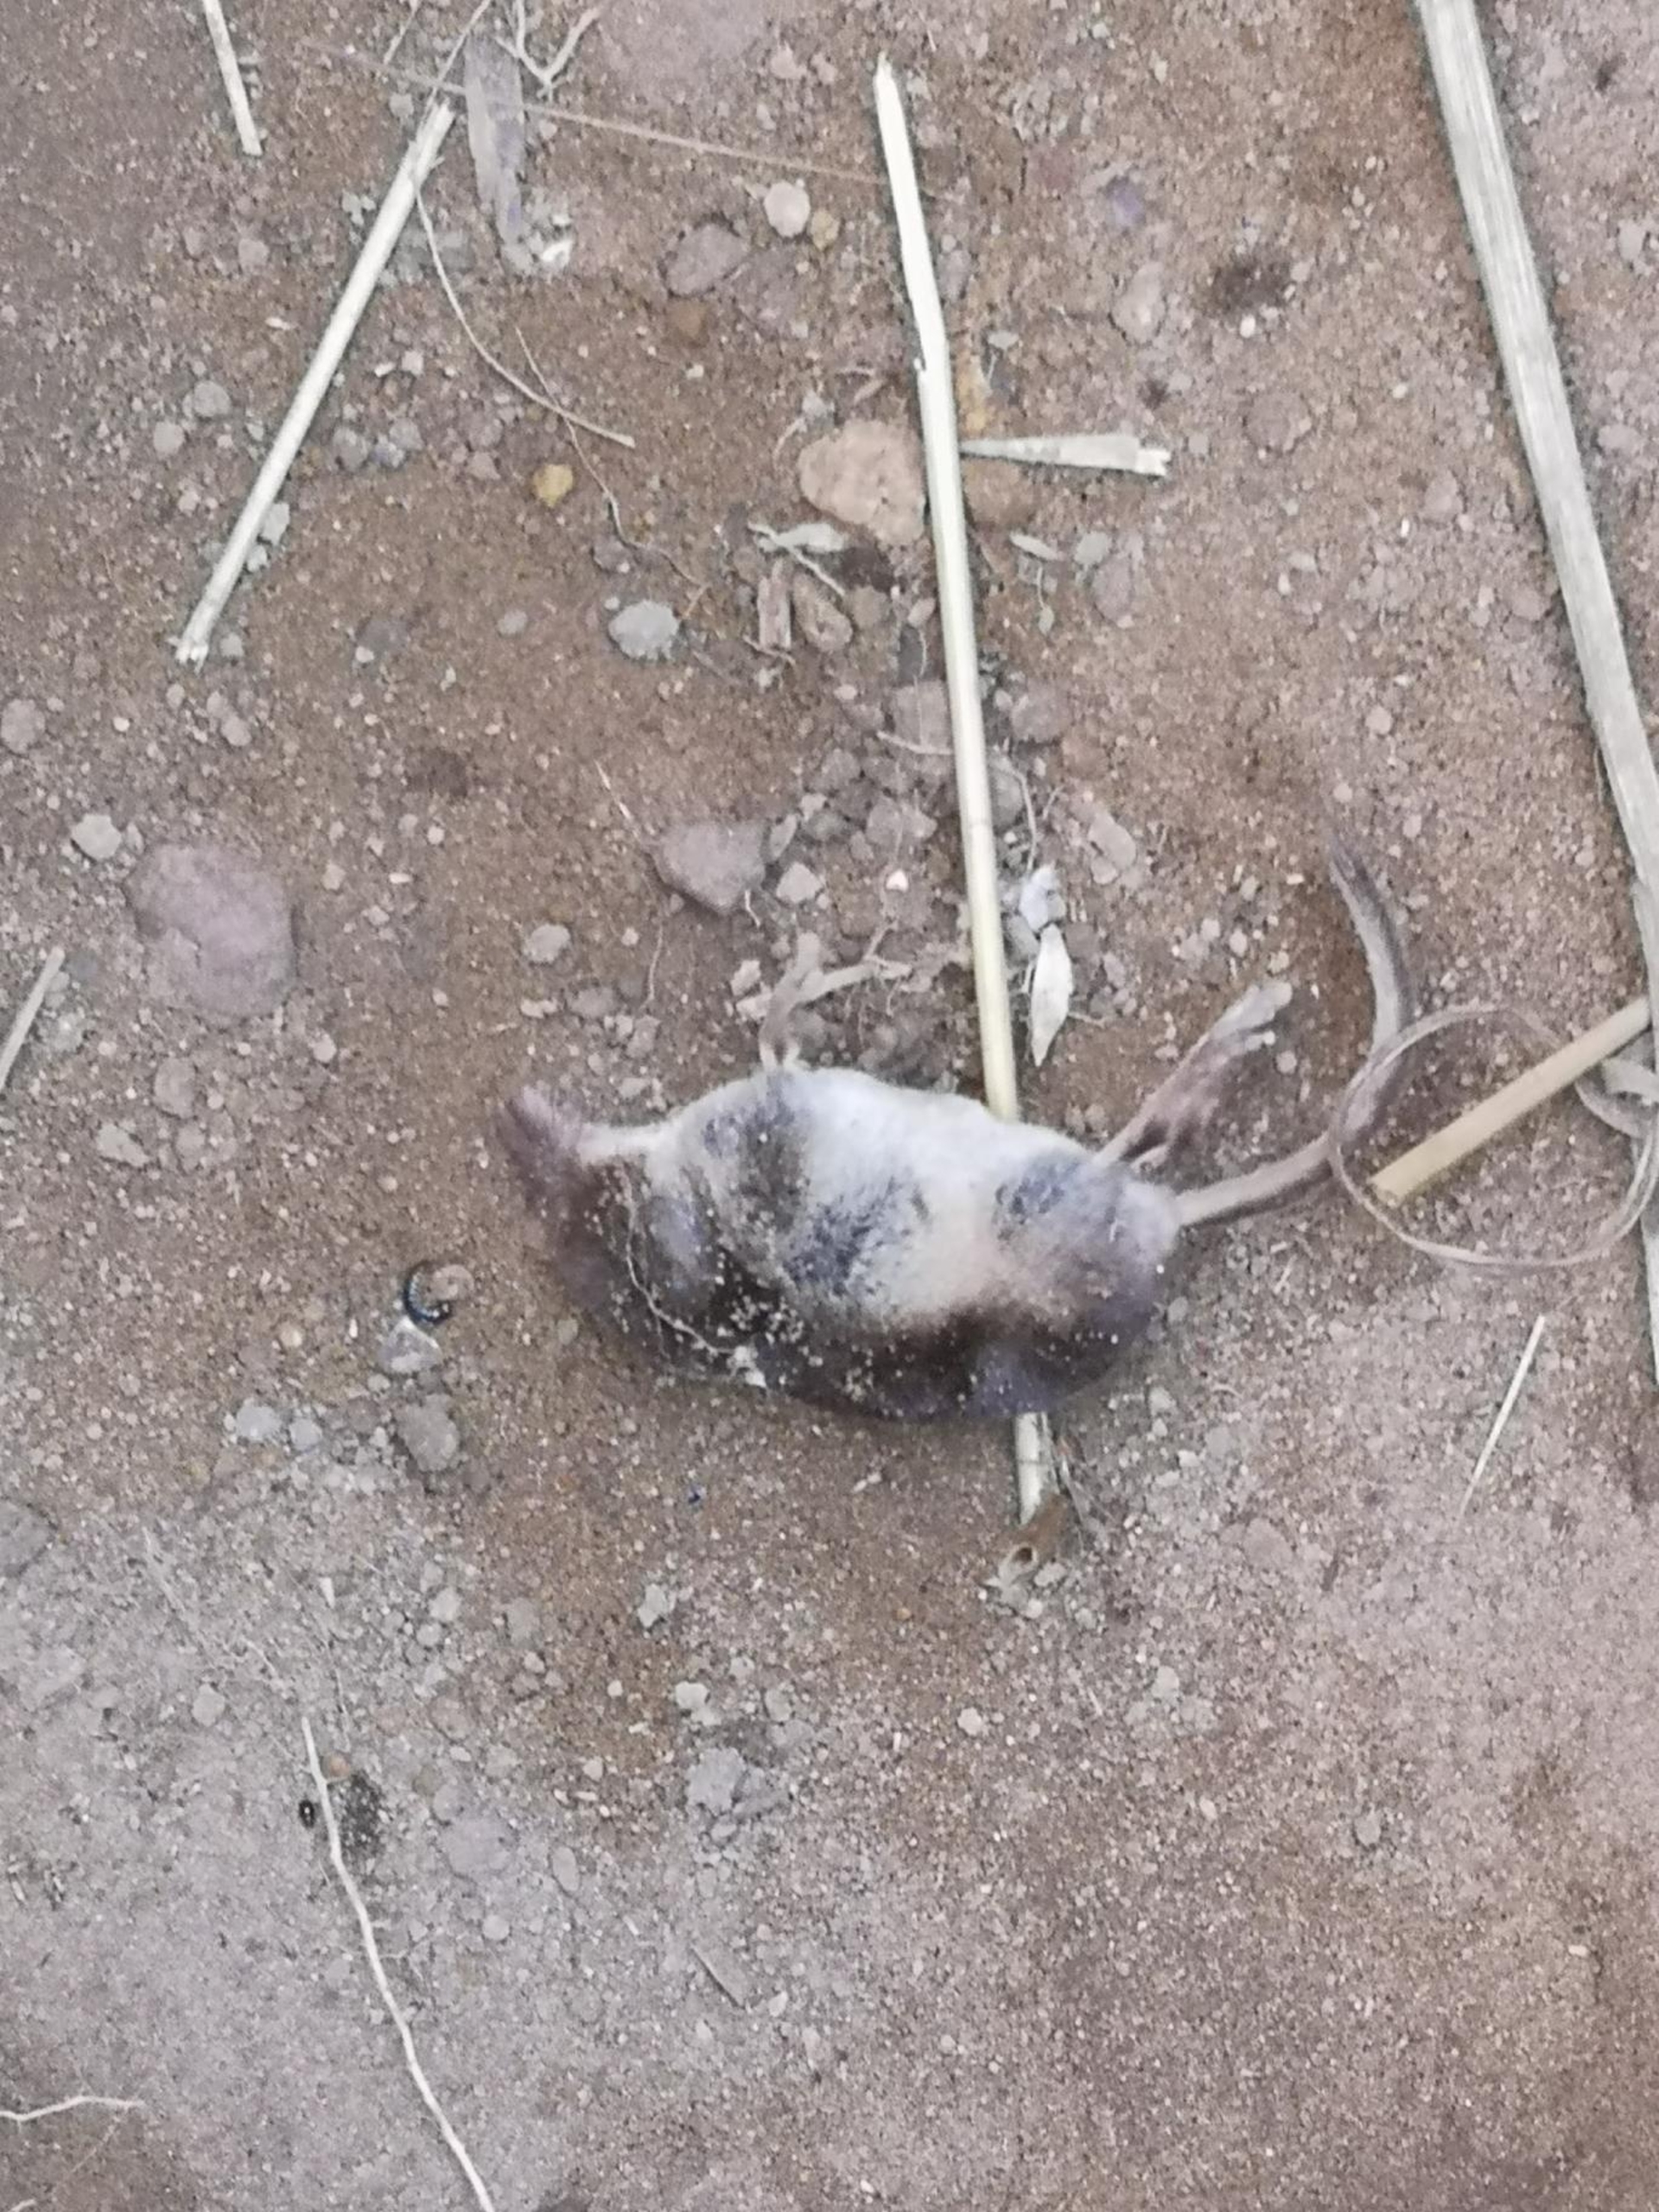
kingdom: Animalia
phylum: Chordata
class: Mammalia
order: Soricomorpha
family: Soricidae
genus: Sorex
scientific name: Sorex araneus
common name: Almindelig spidsmus
